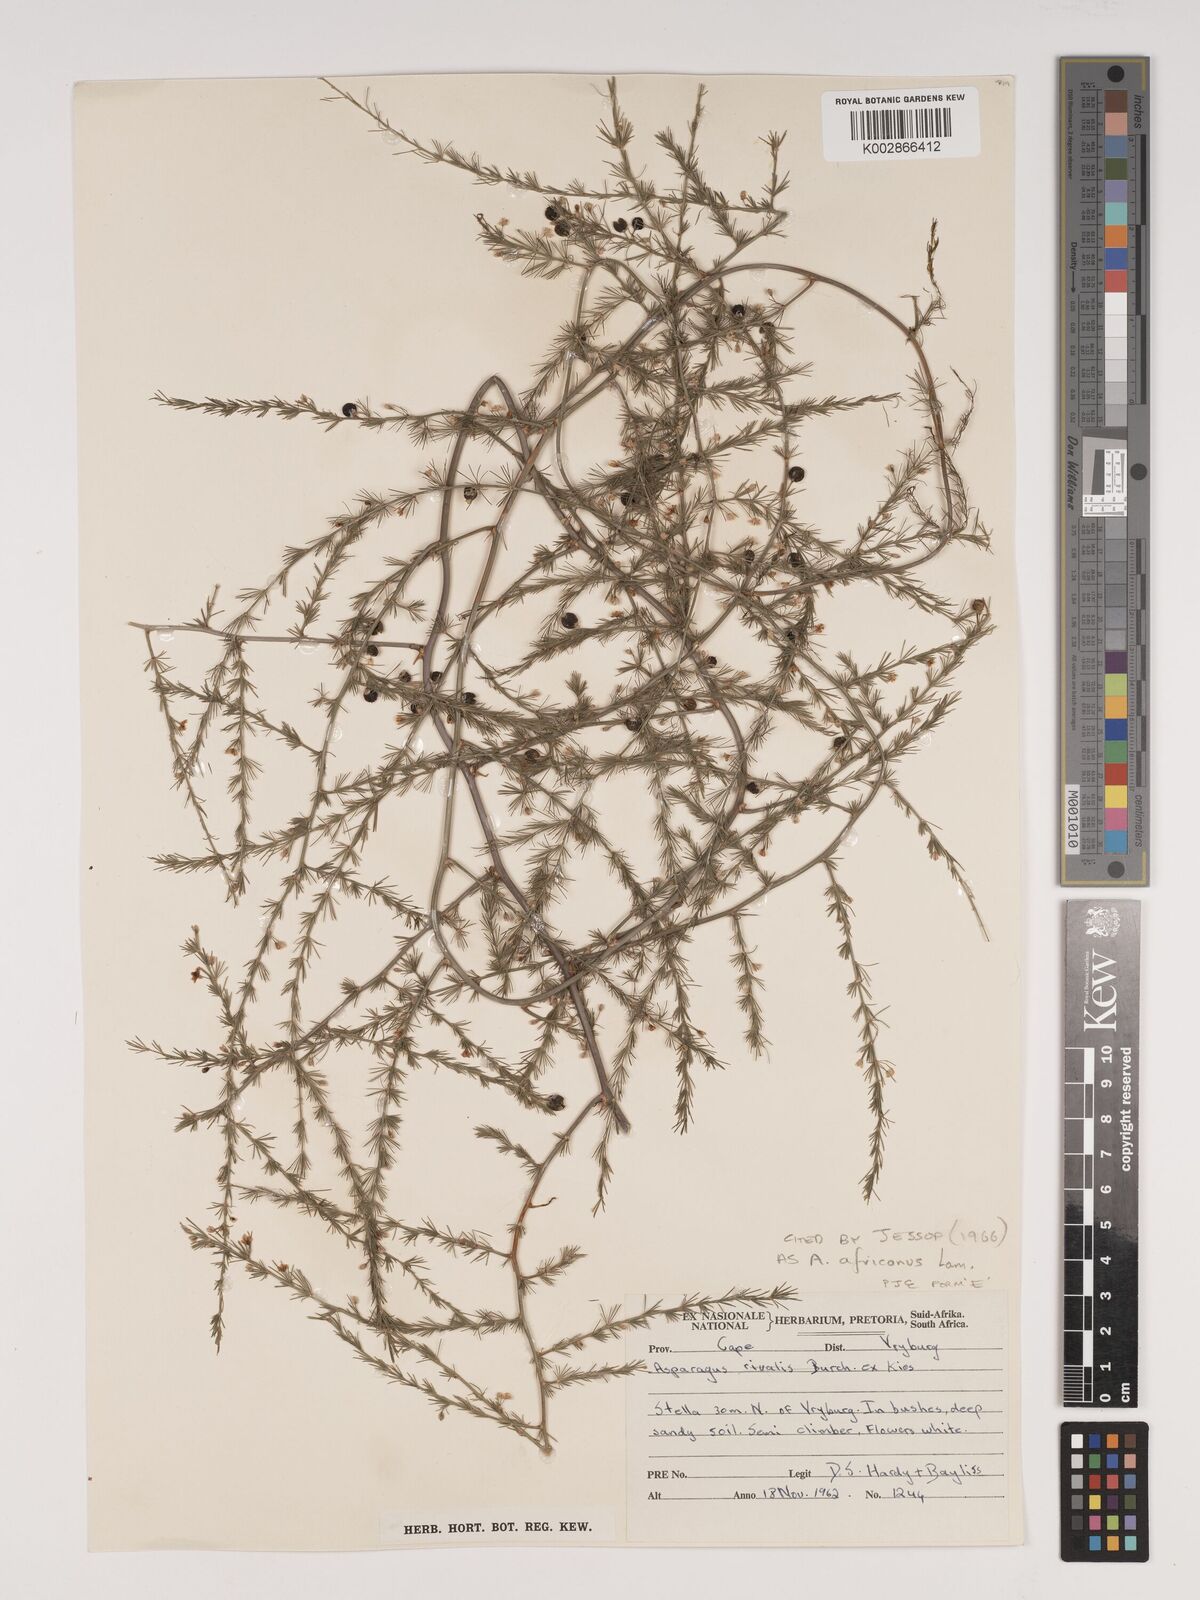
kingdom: Plantae
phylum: Tracheophyta
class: Liliopsida
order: Asparagales
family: Asparagaceae
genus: Asparagus
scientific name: Asparagus africanus
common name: Asparagus-fern
